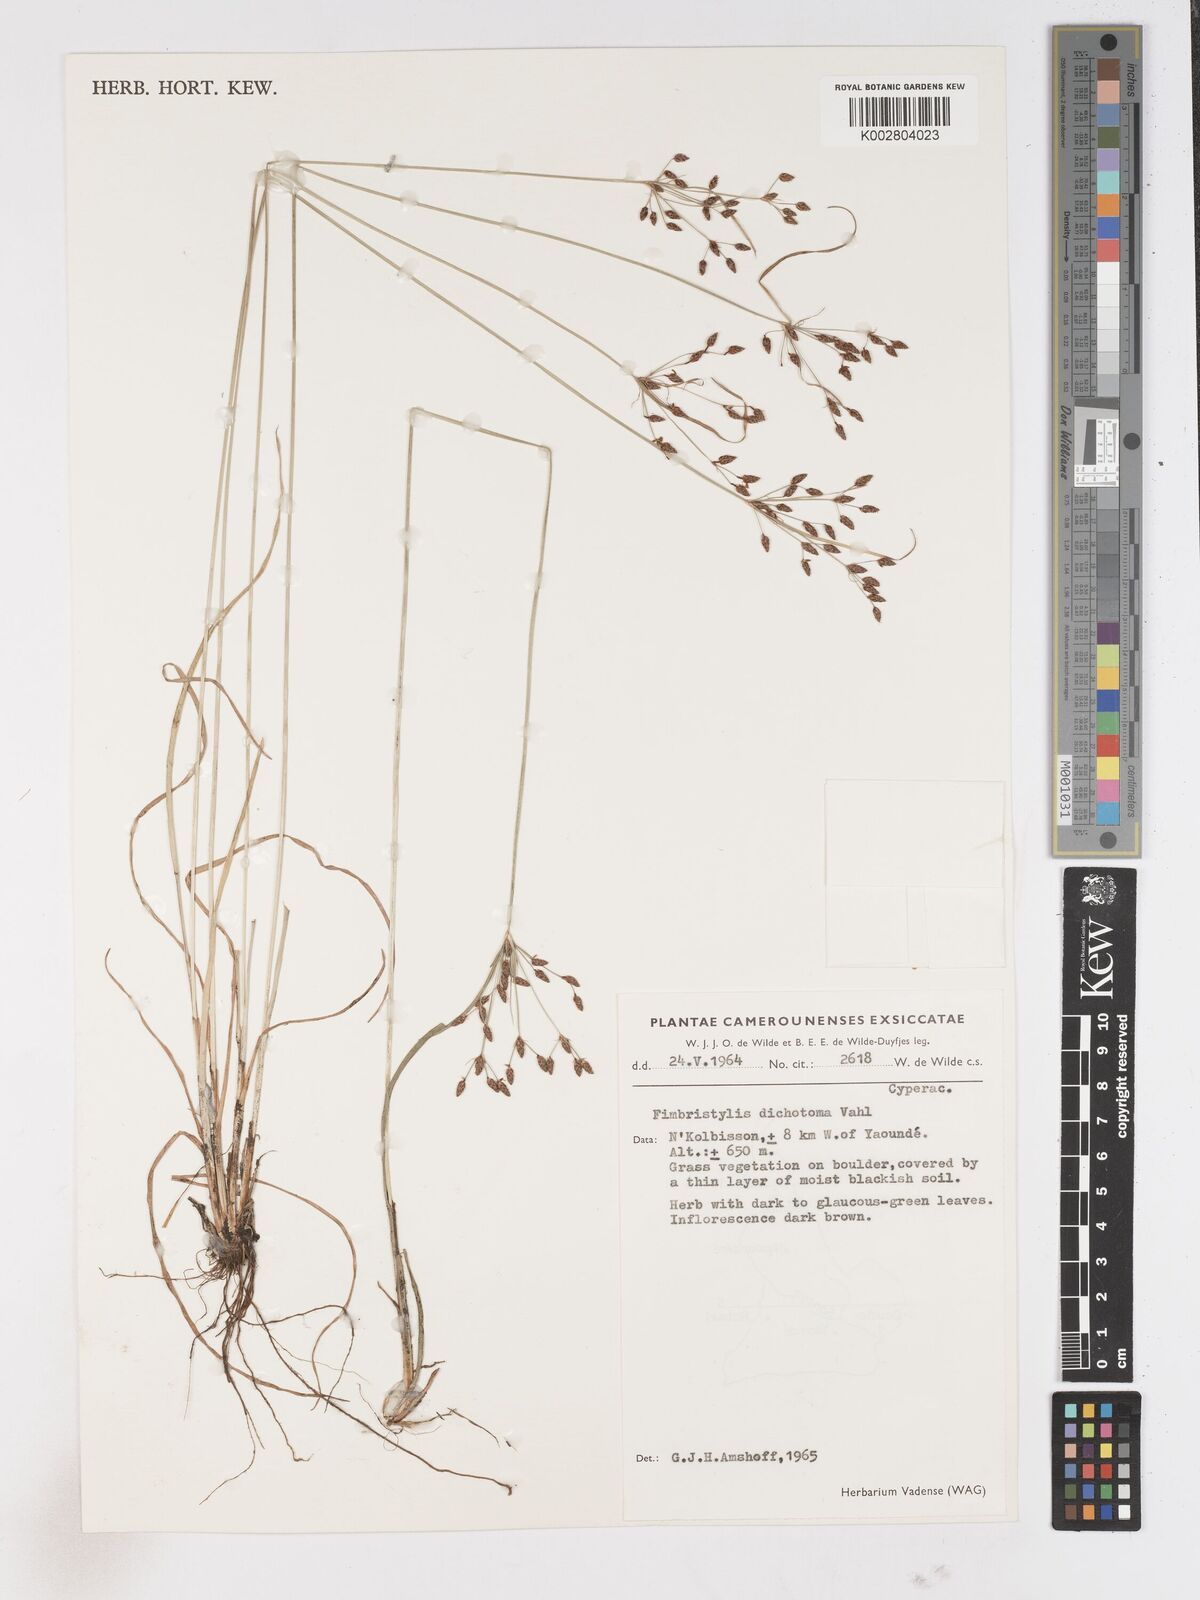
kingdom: Plantae
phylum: Tracheophyta
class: Liliopsida
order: Poales
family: Cyperaceae
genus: Fimbristylis
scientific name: Fimbristylis dichotoma
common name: Forked fimbry
